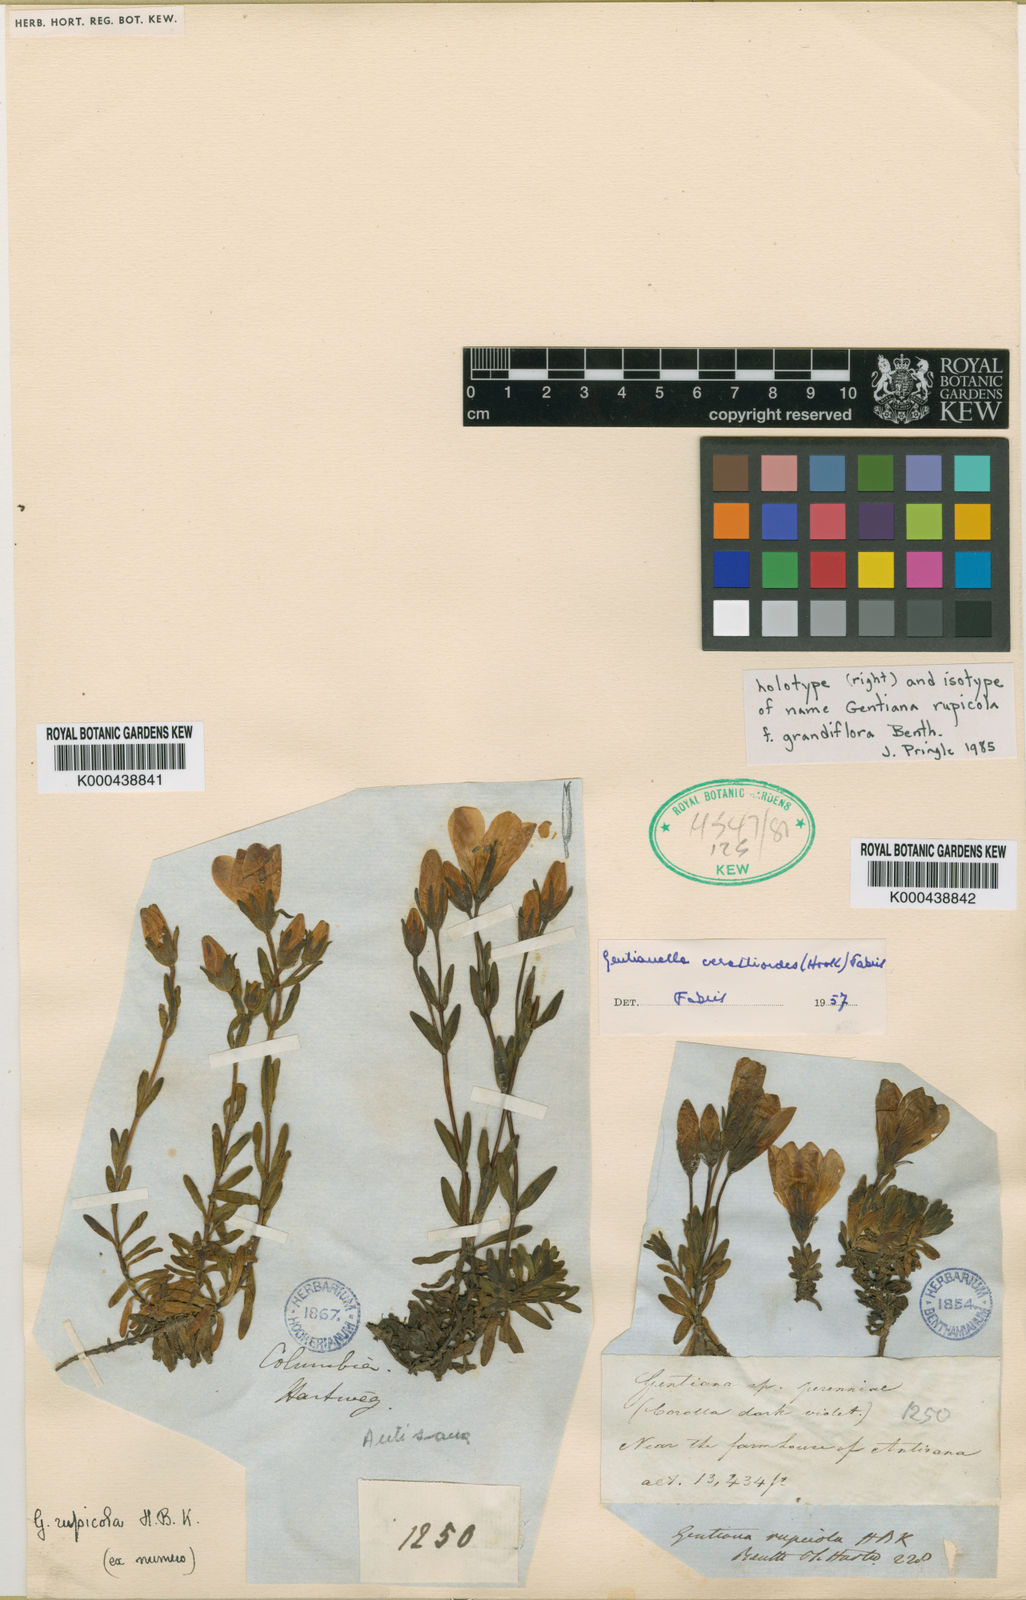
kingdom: Plantae
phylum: Tracheophyta
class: Magnoliopsida
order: Gentianales
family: Gentianaceae
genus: Gentianella
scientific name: Gentianella cerastioides
